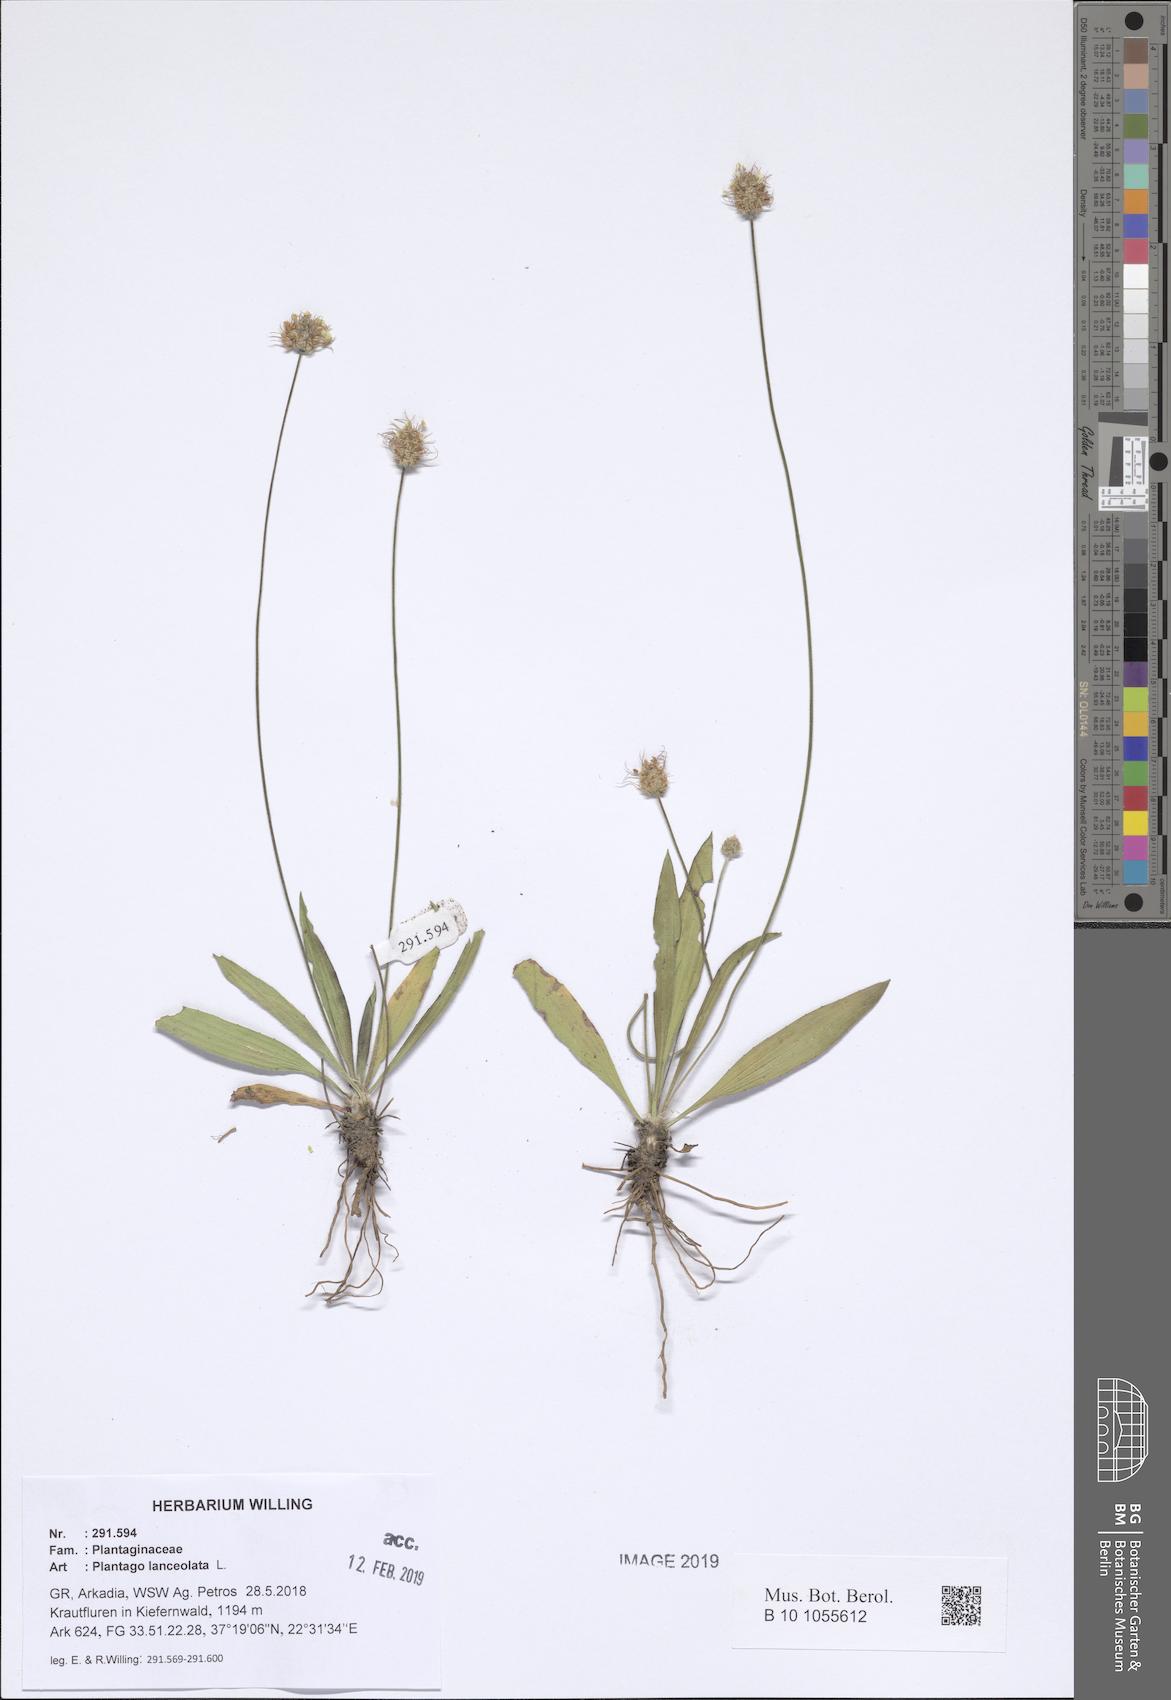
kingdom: Plantae
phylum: Tracheophyta
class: Magnoliopsida
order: Lamiales
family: Plantaginaceae
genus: Plantago
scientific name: Plantago lanceolata
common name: Ribwort plantain
